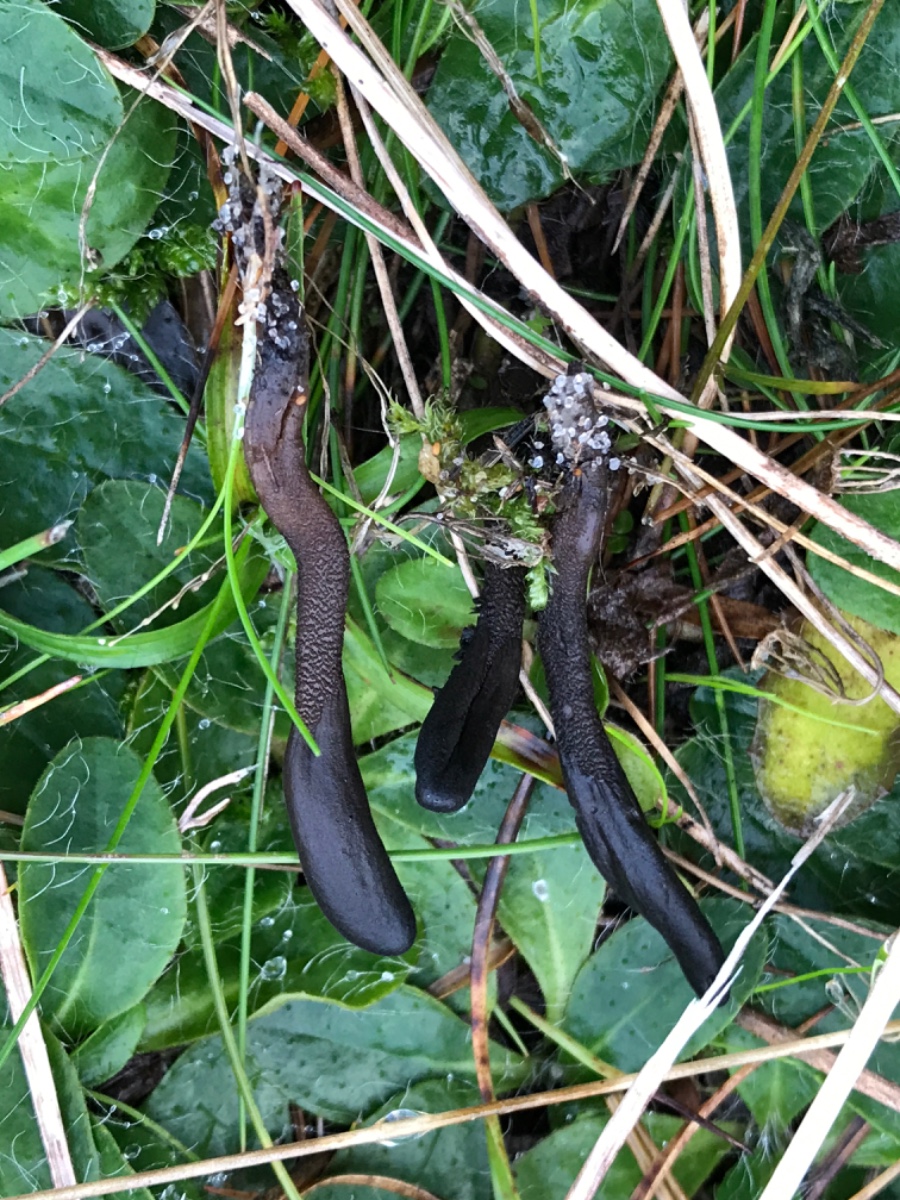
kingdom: Fungi
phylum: Ascomycota
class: Geoglossomycetes
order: Geoglossales
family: Geoglossaceae
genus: Hemileucoglossum
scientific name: Hemileucoglossum elongatum
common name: småsporet jordtunge
